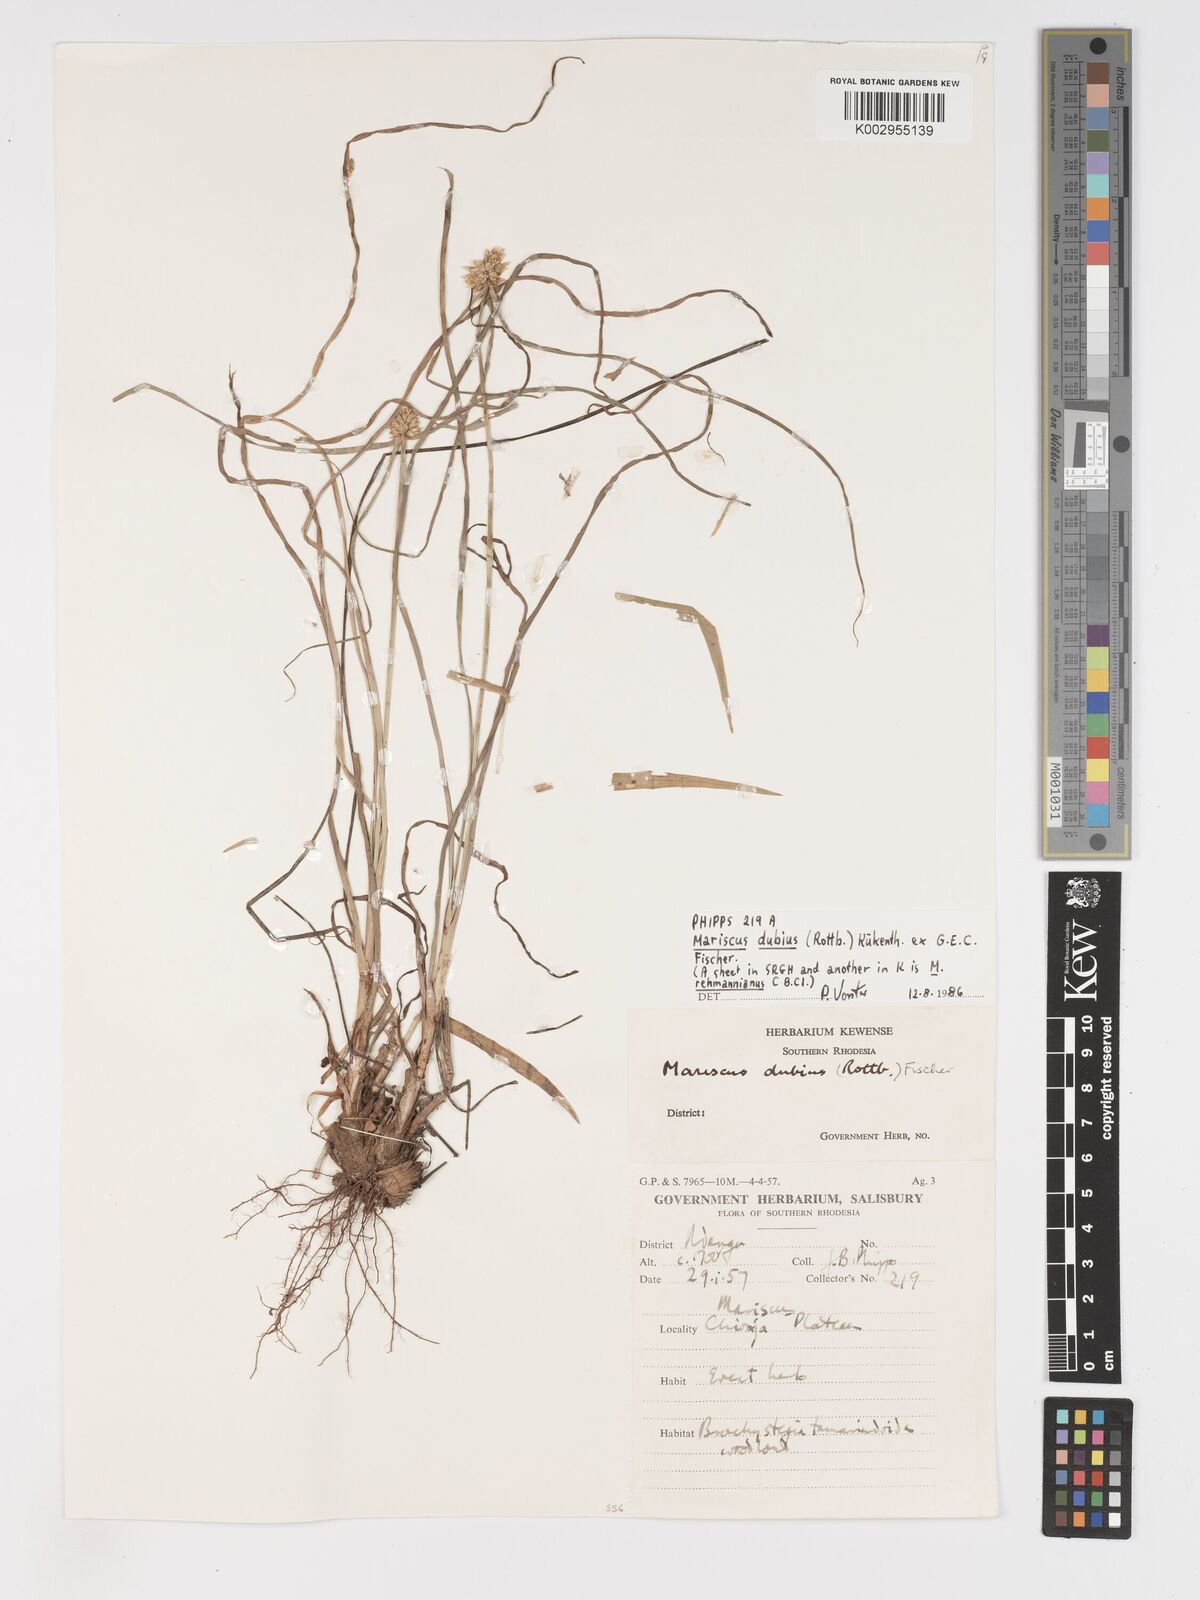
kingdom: Plantae
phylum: Tracheophyta
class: Liliopsida
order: Poales
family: Cyperaceae
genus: Cyperus
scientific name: Cyperus dubius
